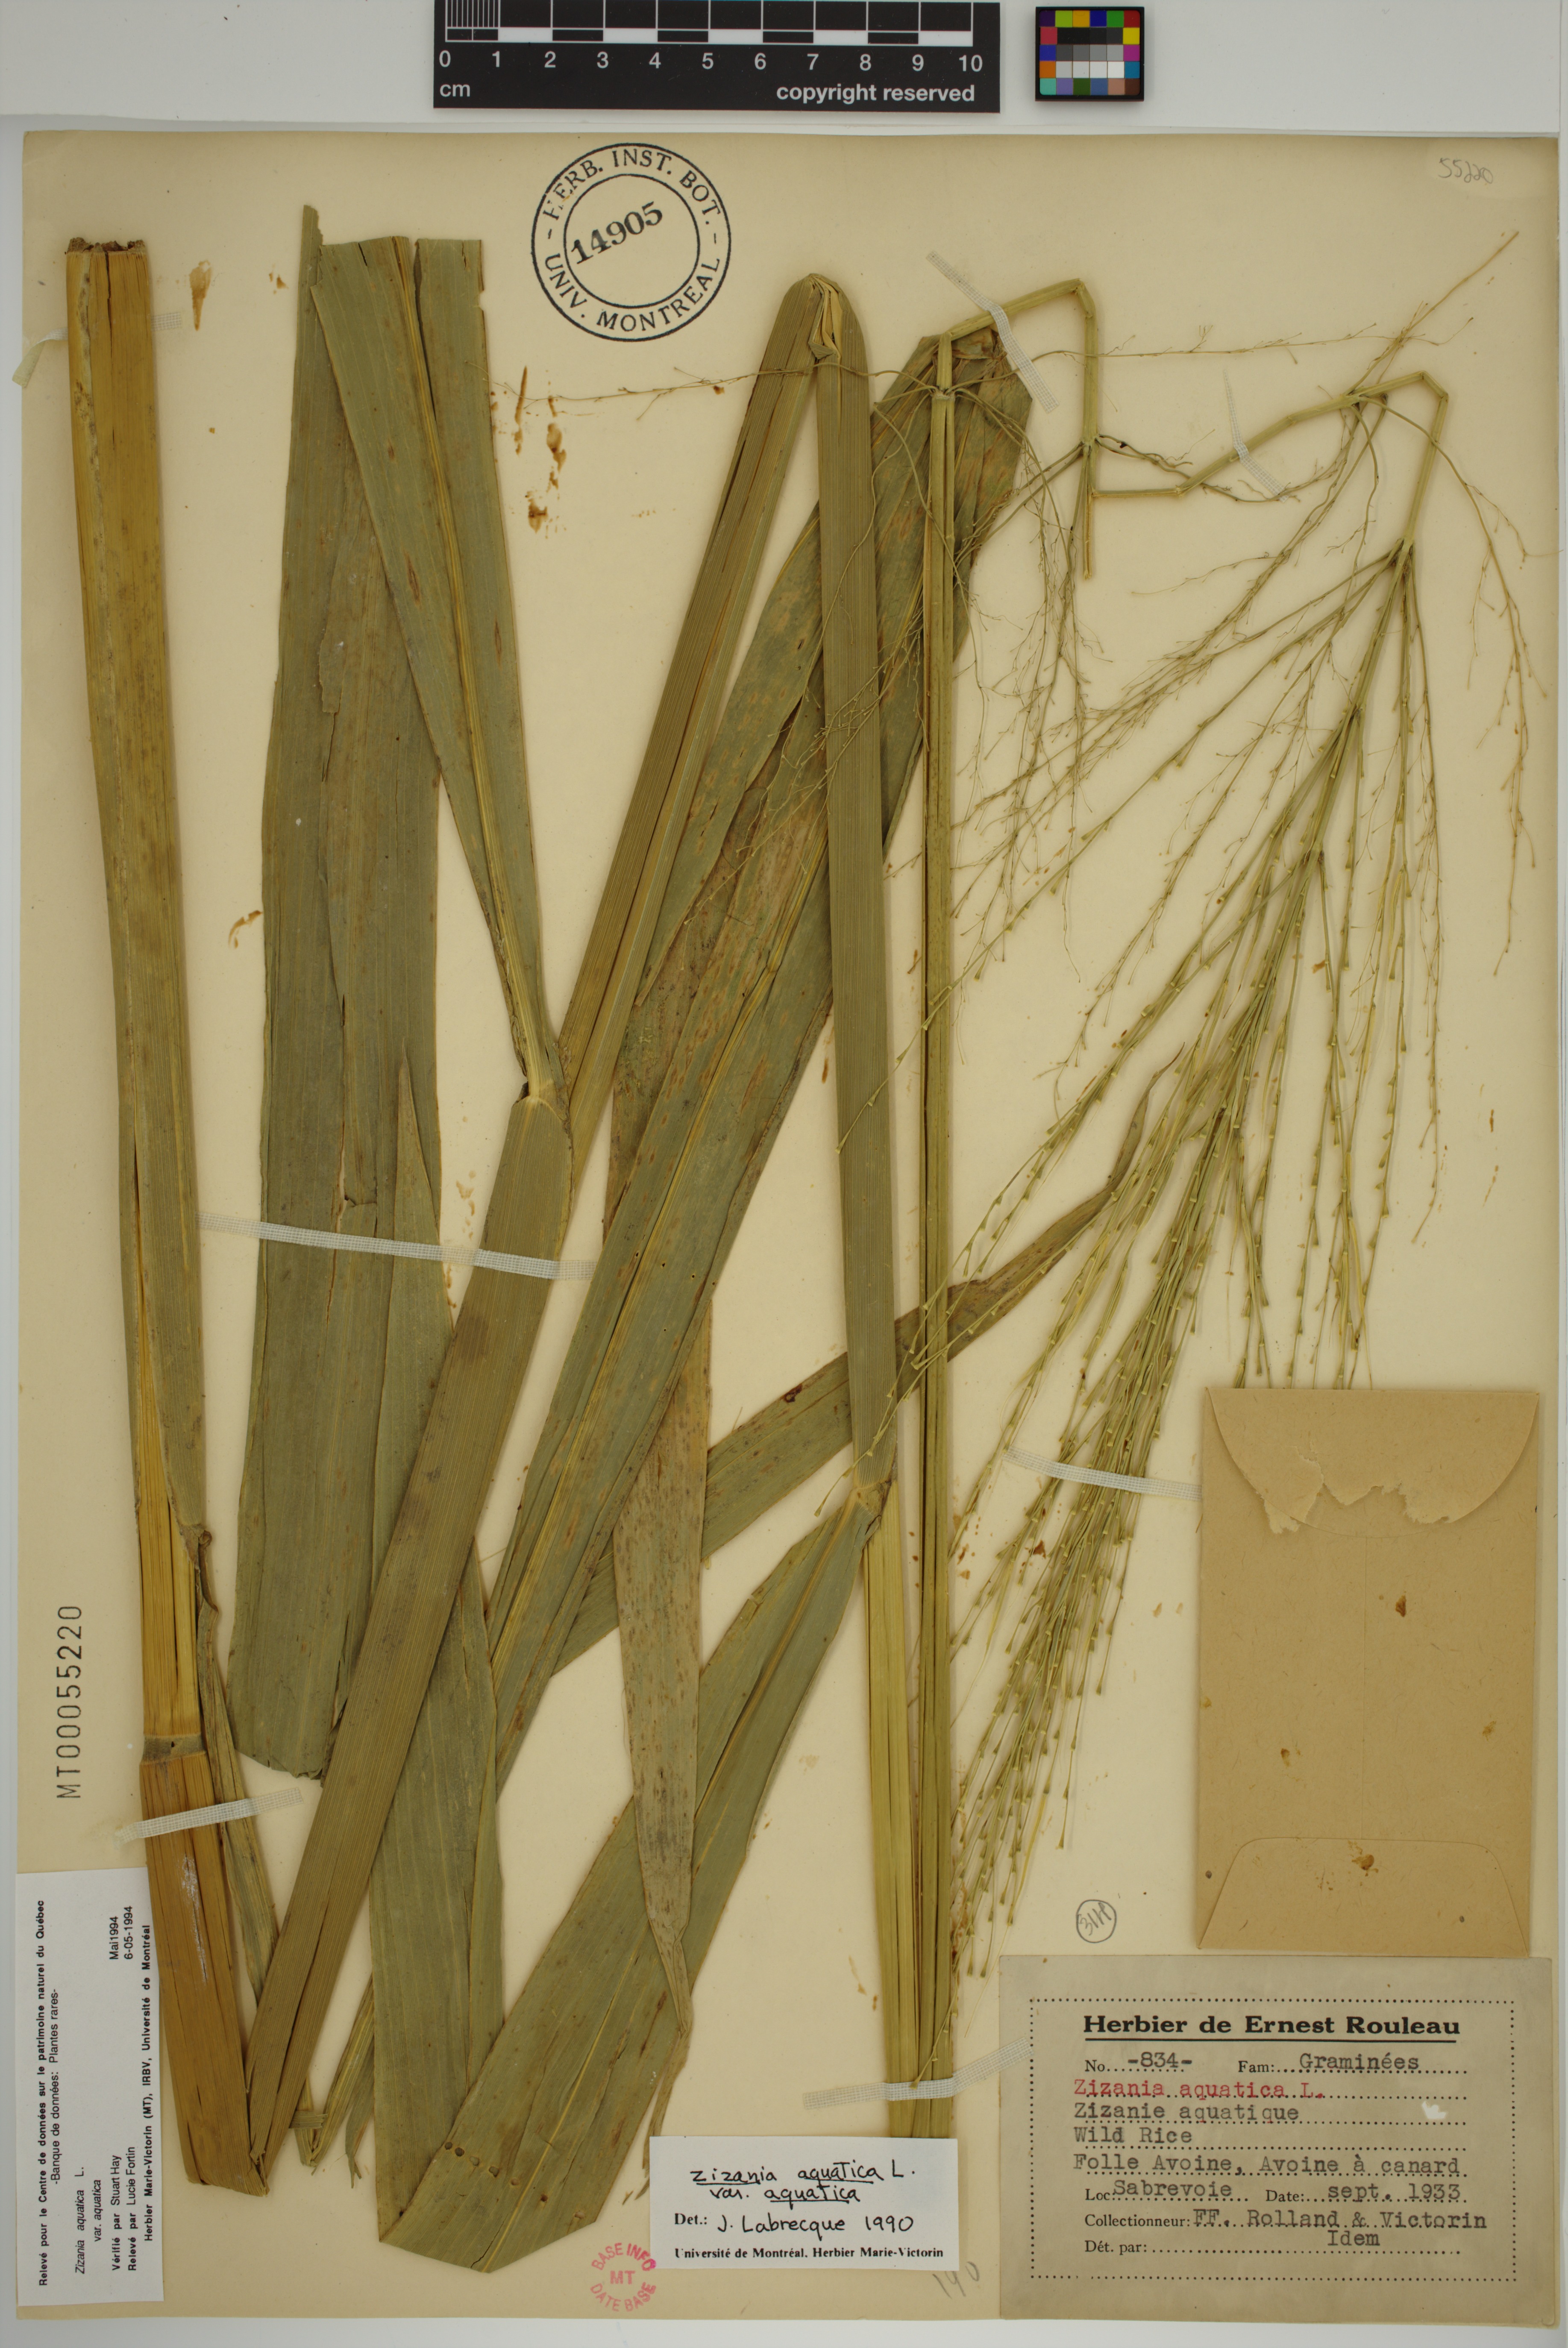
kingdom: Plantae
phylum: Tracheophyta
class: Liliopsida
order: Poales
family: Poaceae
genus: Zizania
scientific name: Zizania aquatica
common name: Annual wildrice
